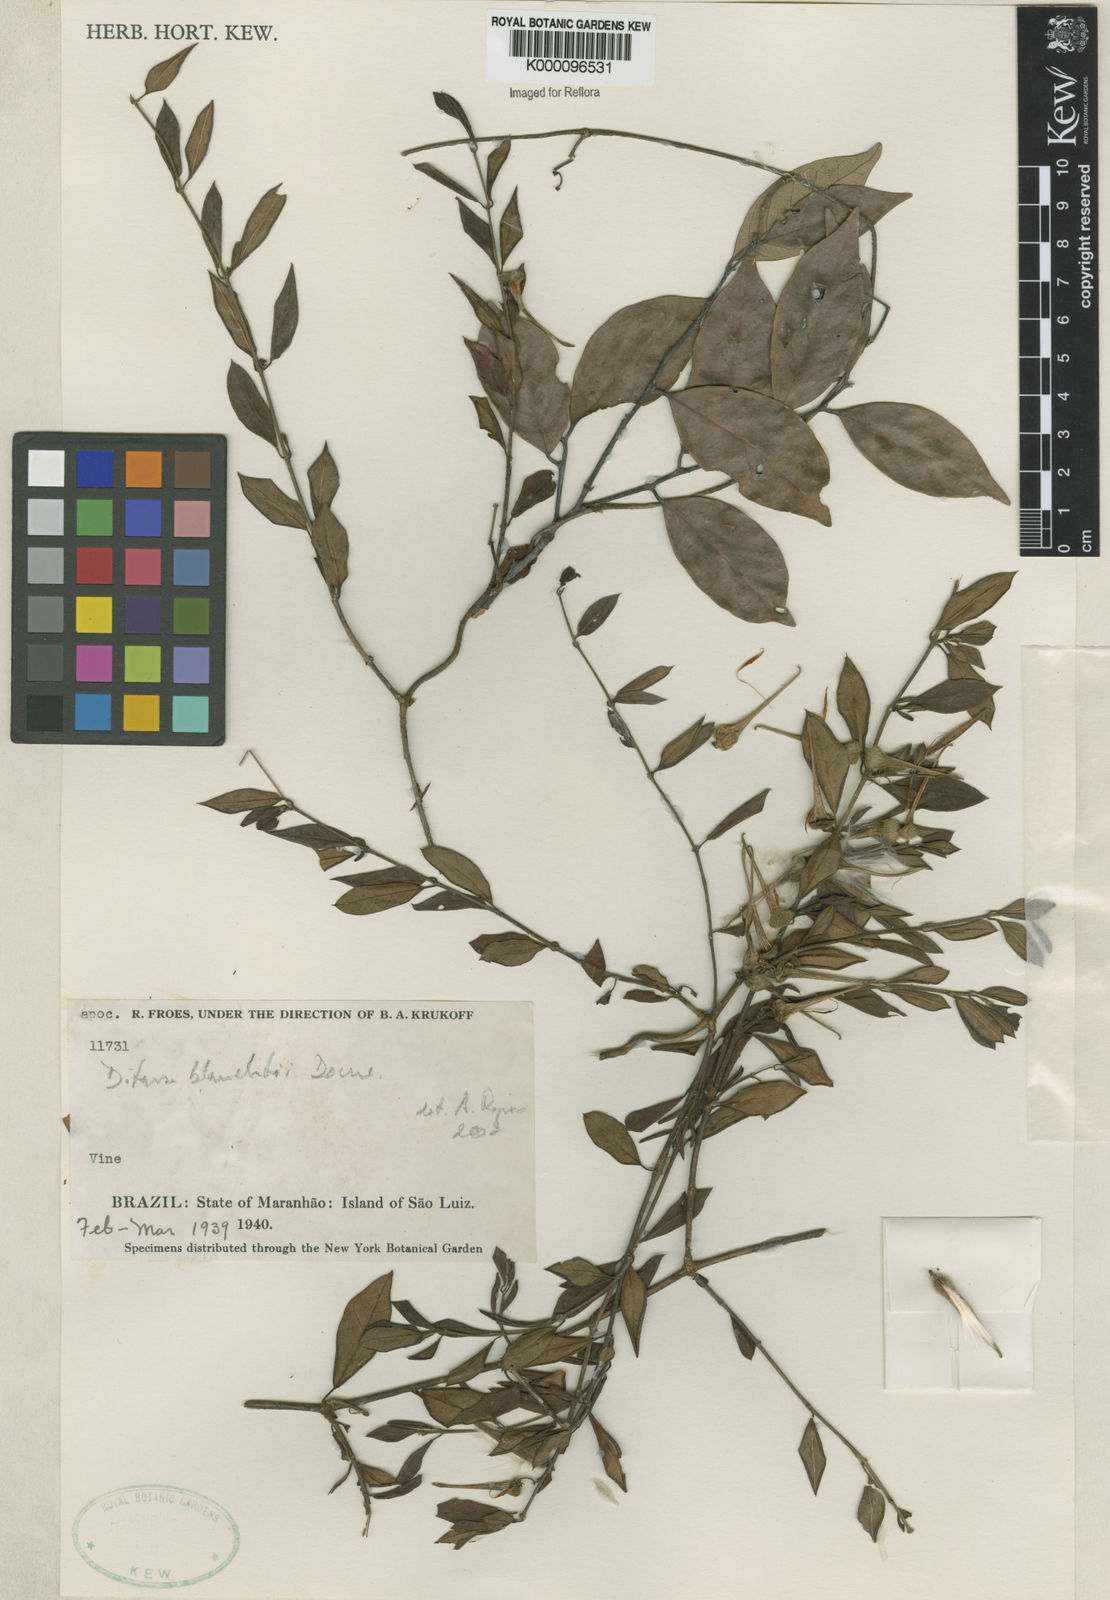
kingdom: Plantae
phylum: Tracheophyta
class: Magnoliopsida
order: Gentianales
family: Apocynaceae
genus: Ditassa
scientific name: Ditassa blanchetii
